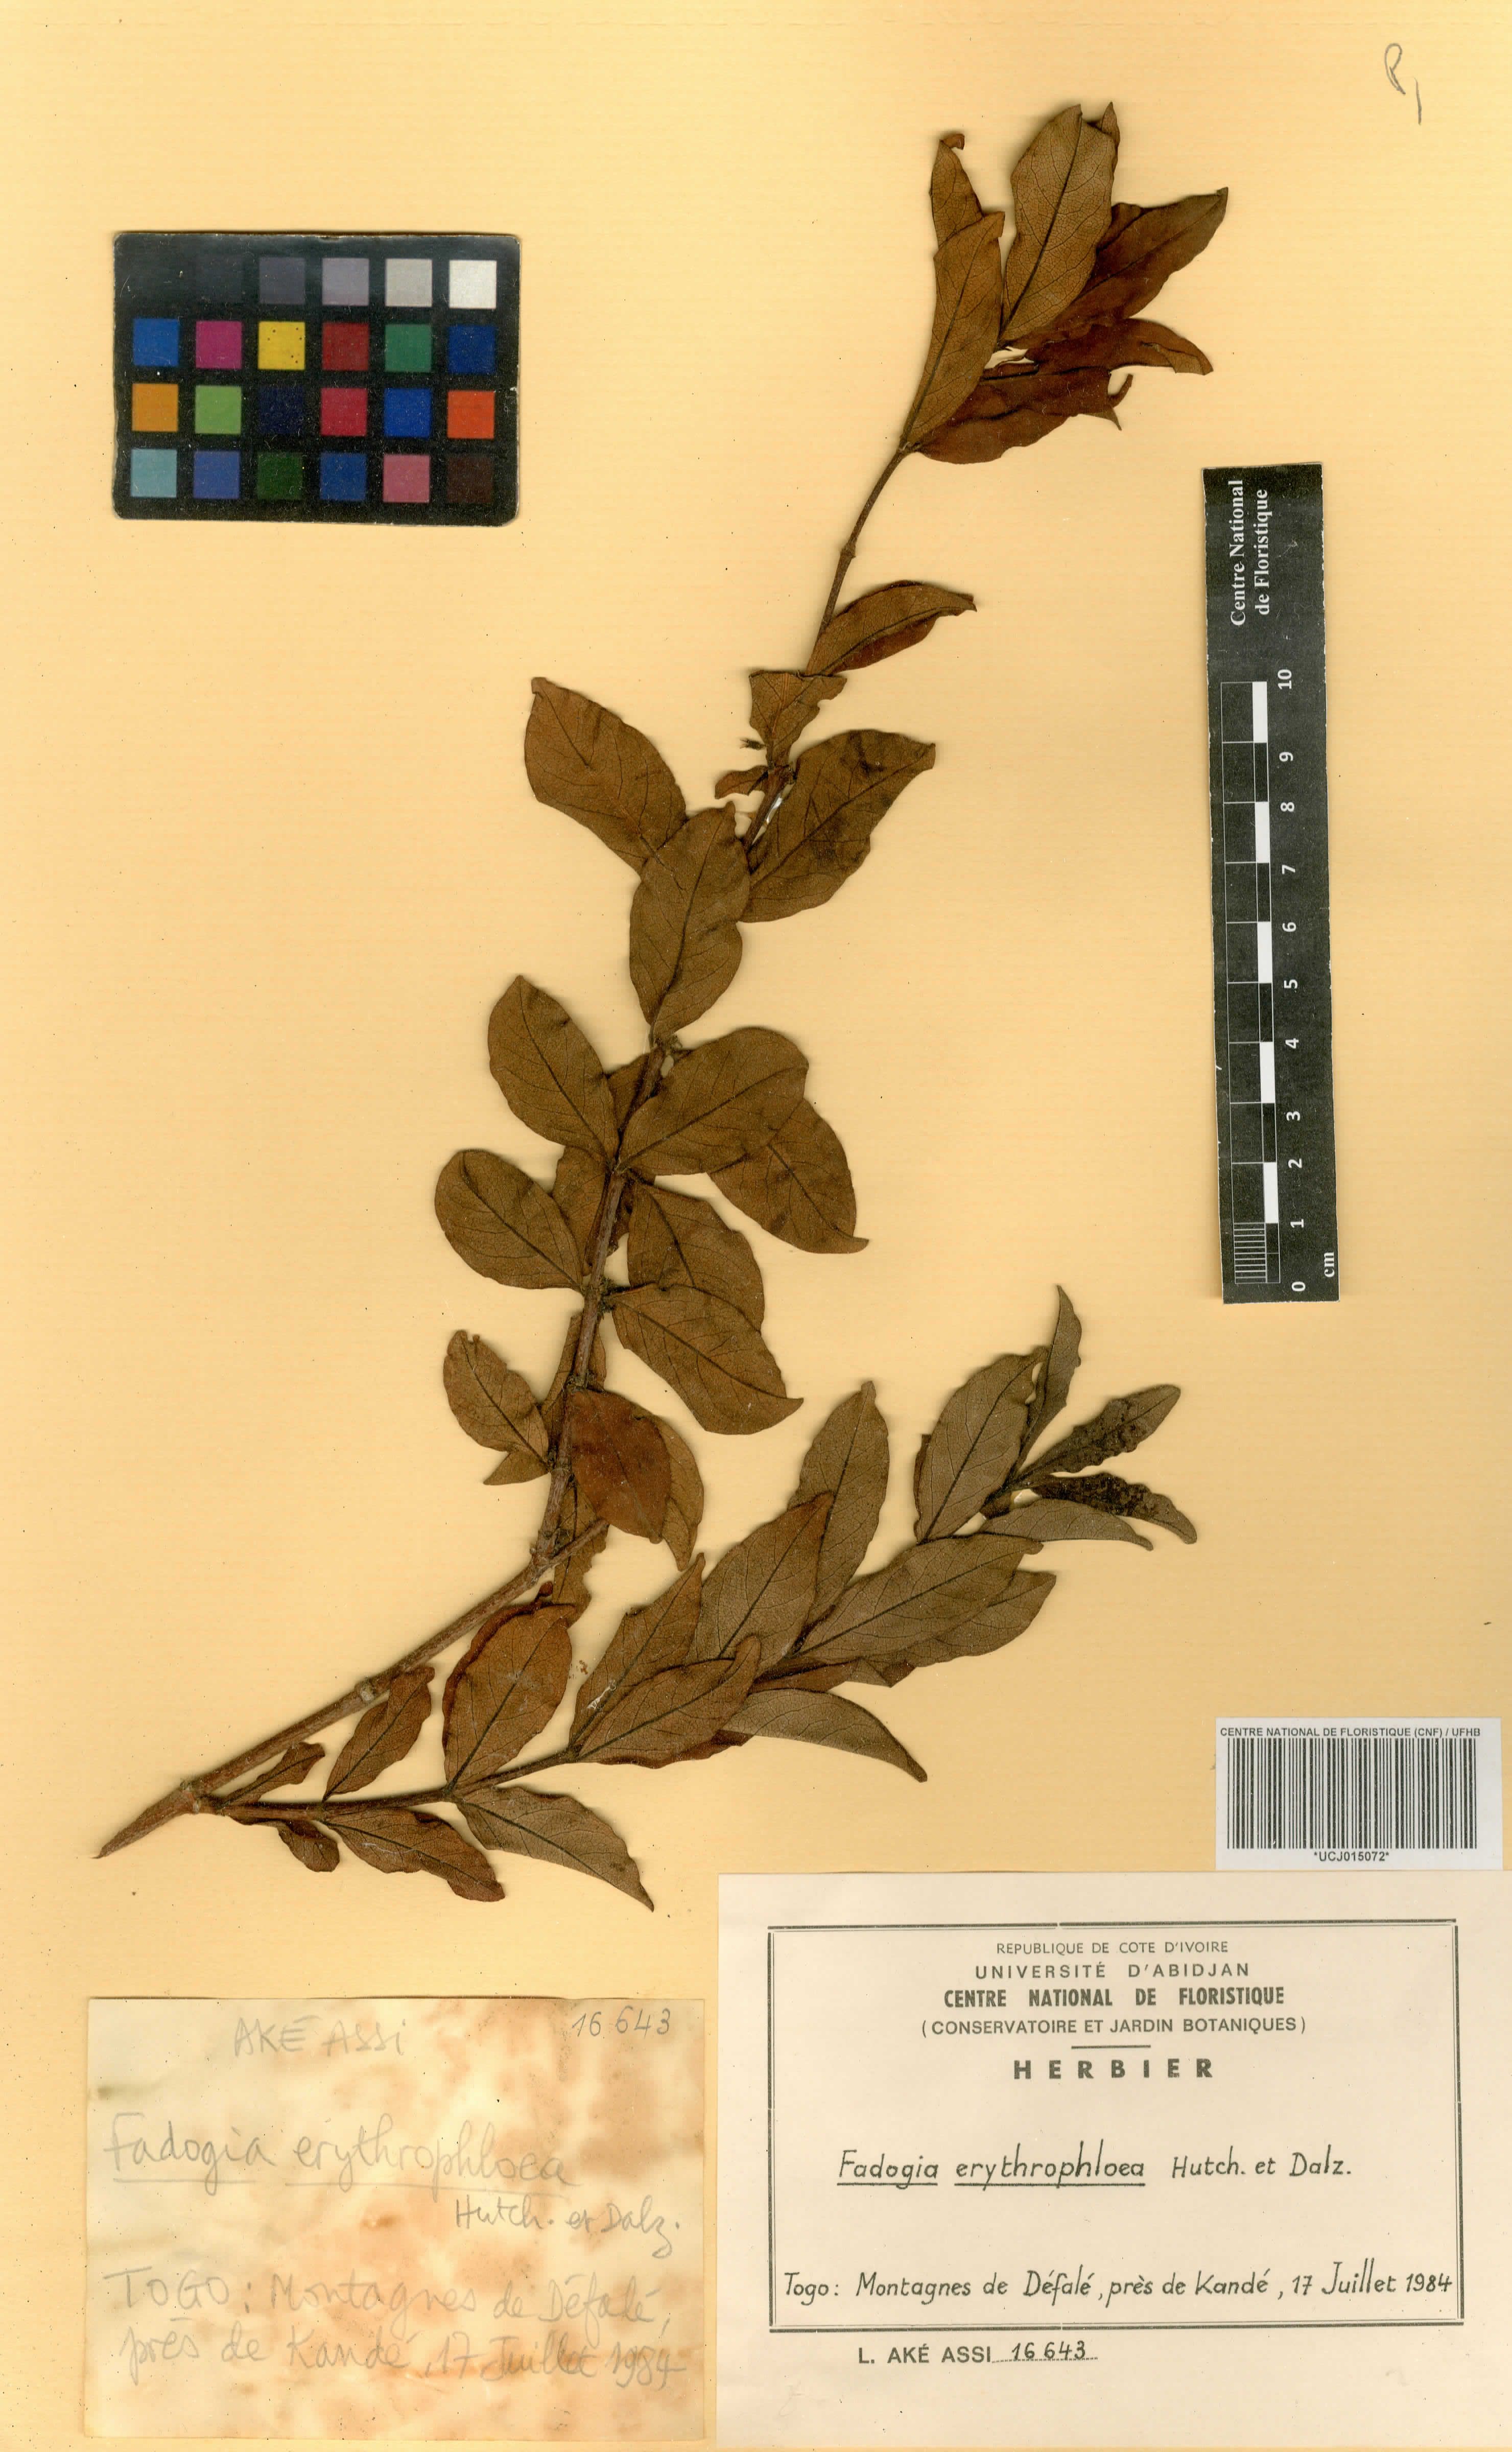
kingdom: Plantae
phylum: Tracheophyta
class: Magnoliopsida
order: Gentianales
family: Rubiaceae
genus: Fadogia
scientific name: Fadogia erythrophloea
